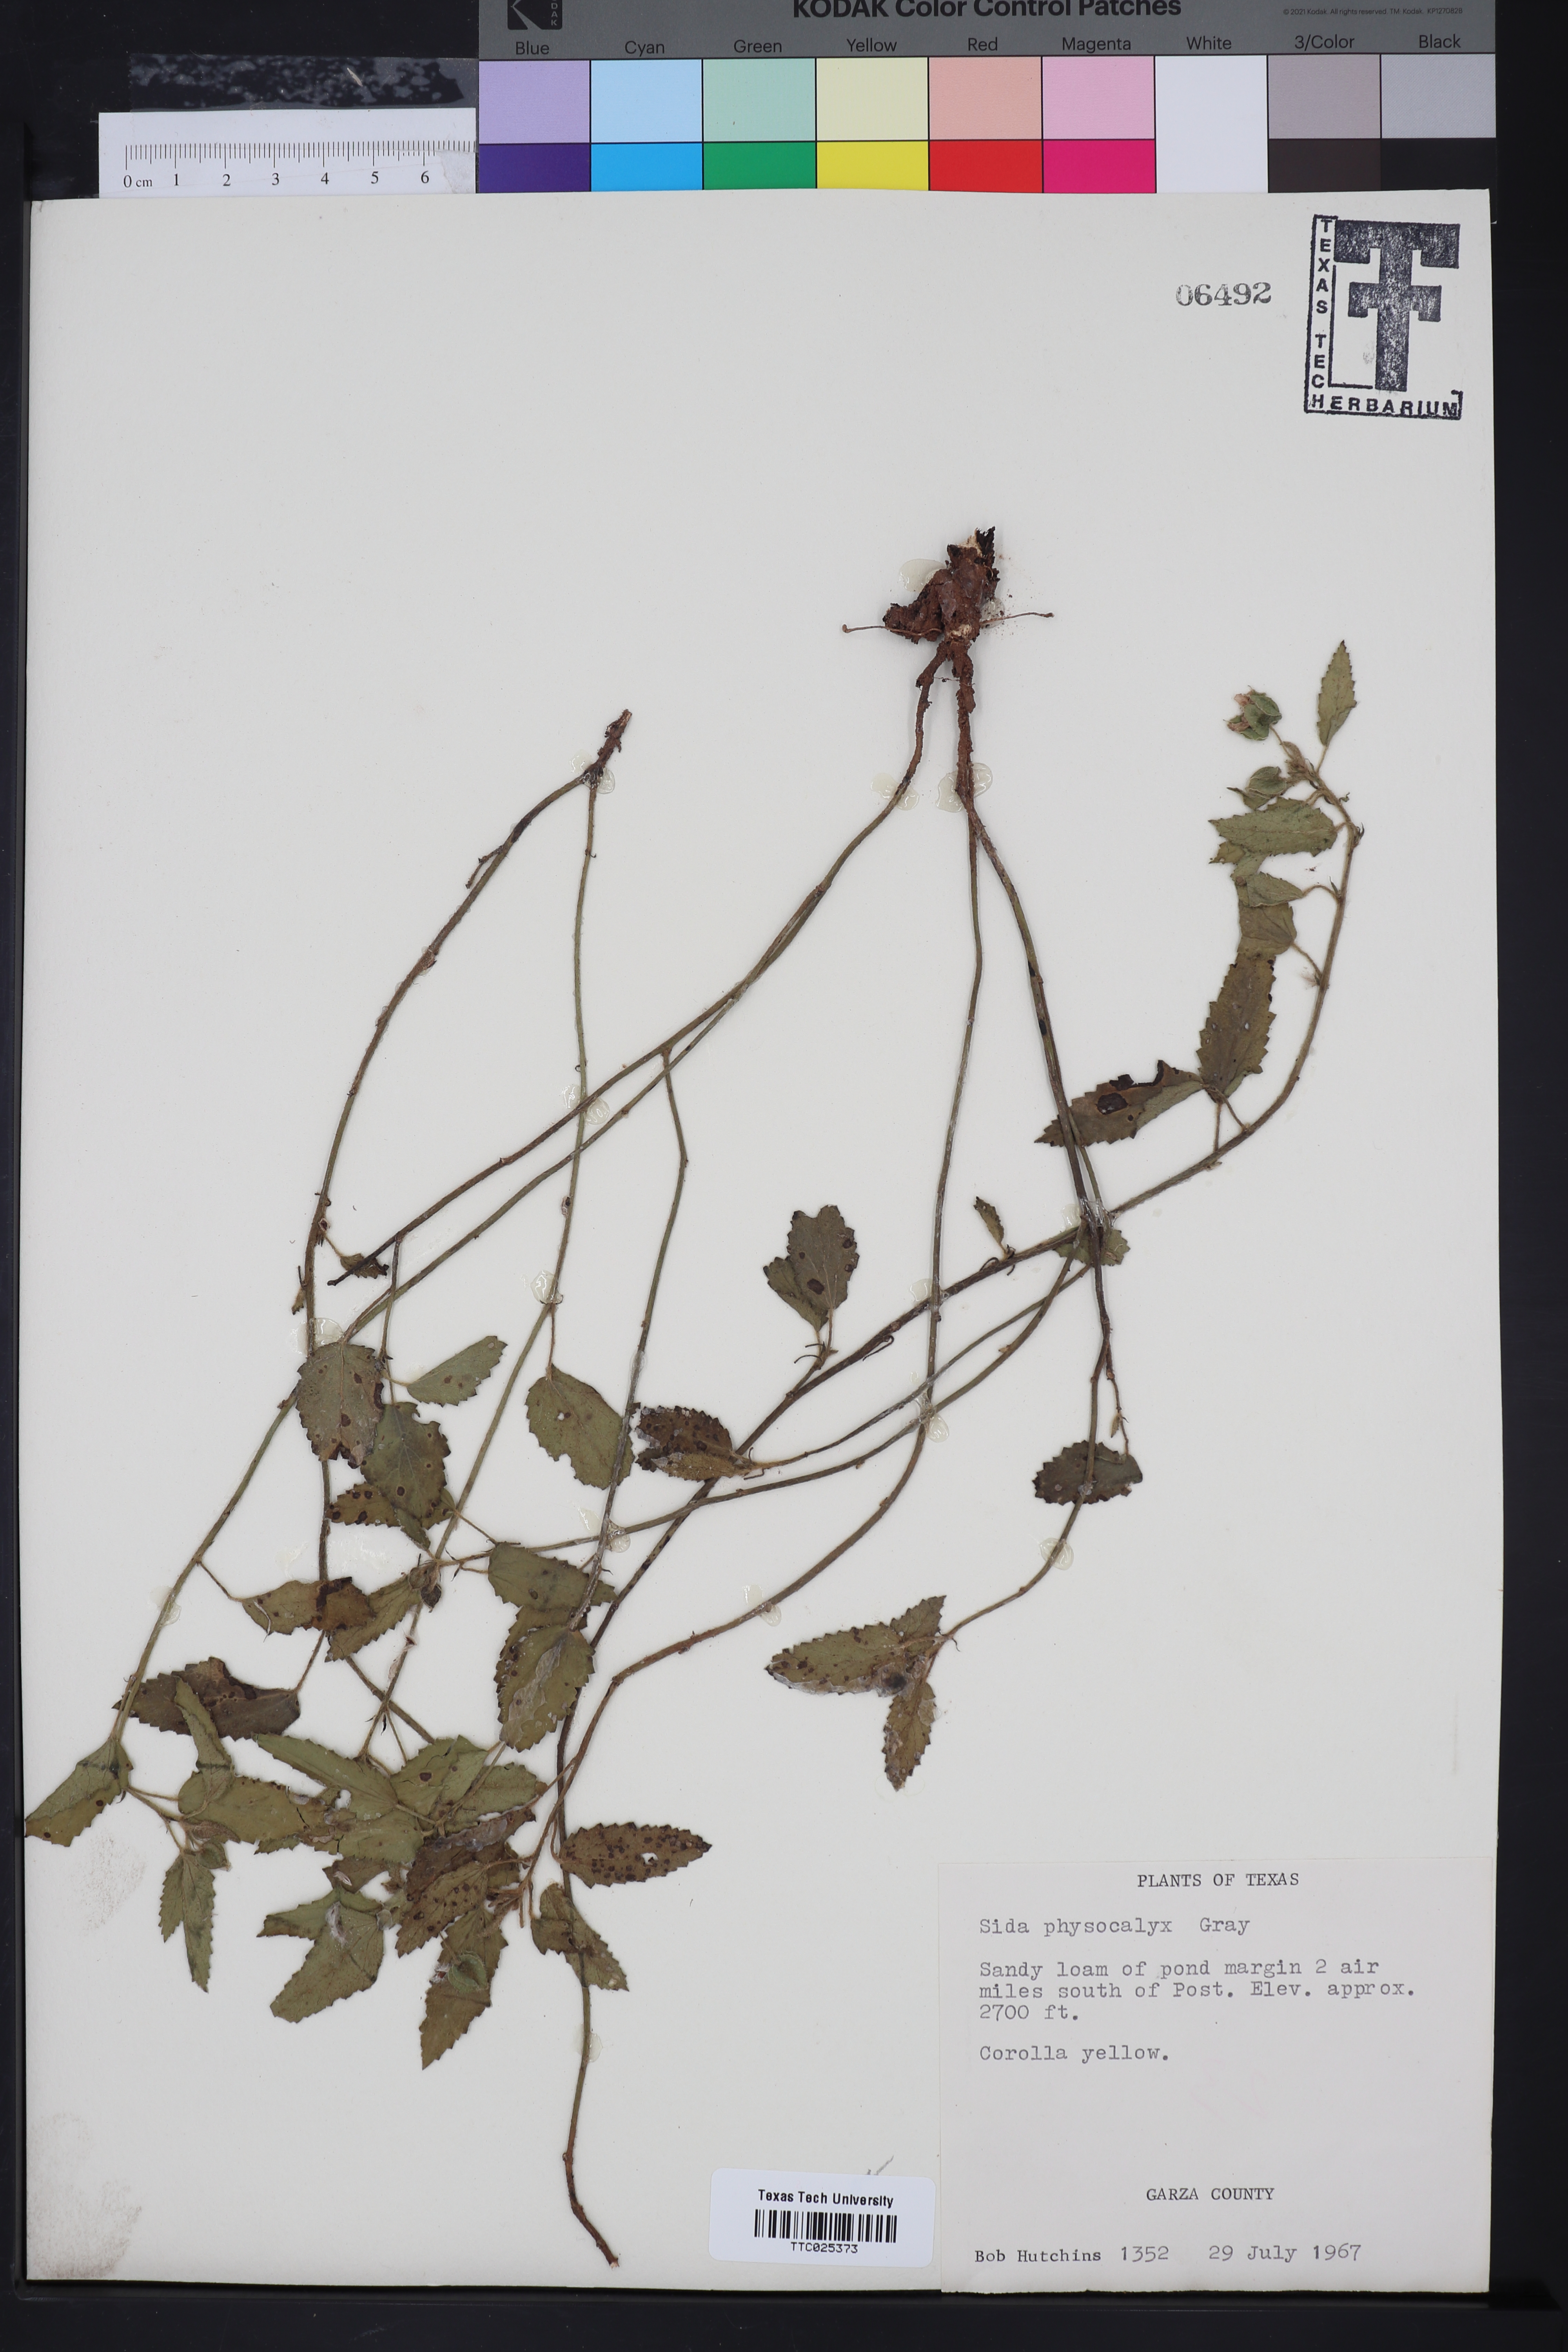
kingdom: Plantae
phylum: Tracheophyta
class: Magnoliopsida
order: Malvales
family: Malvaceae
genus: Rhynchosida
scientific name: Rhynchosida physocalyx
